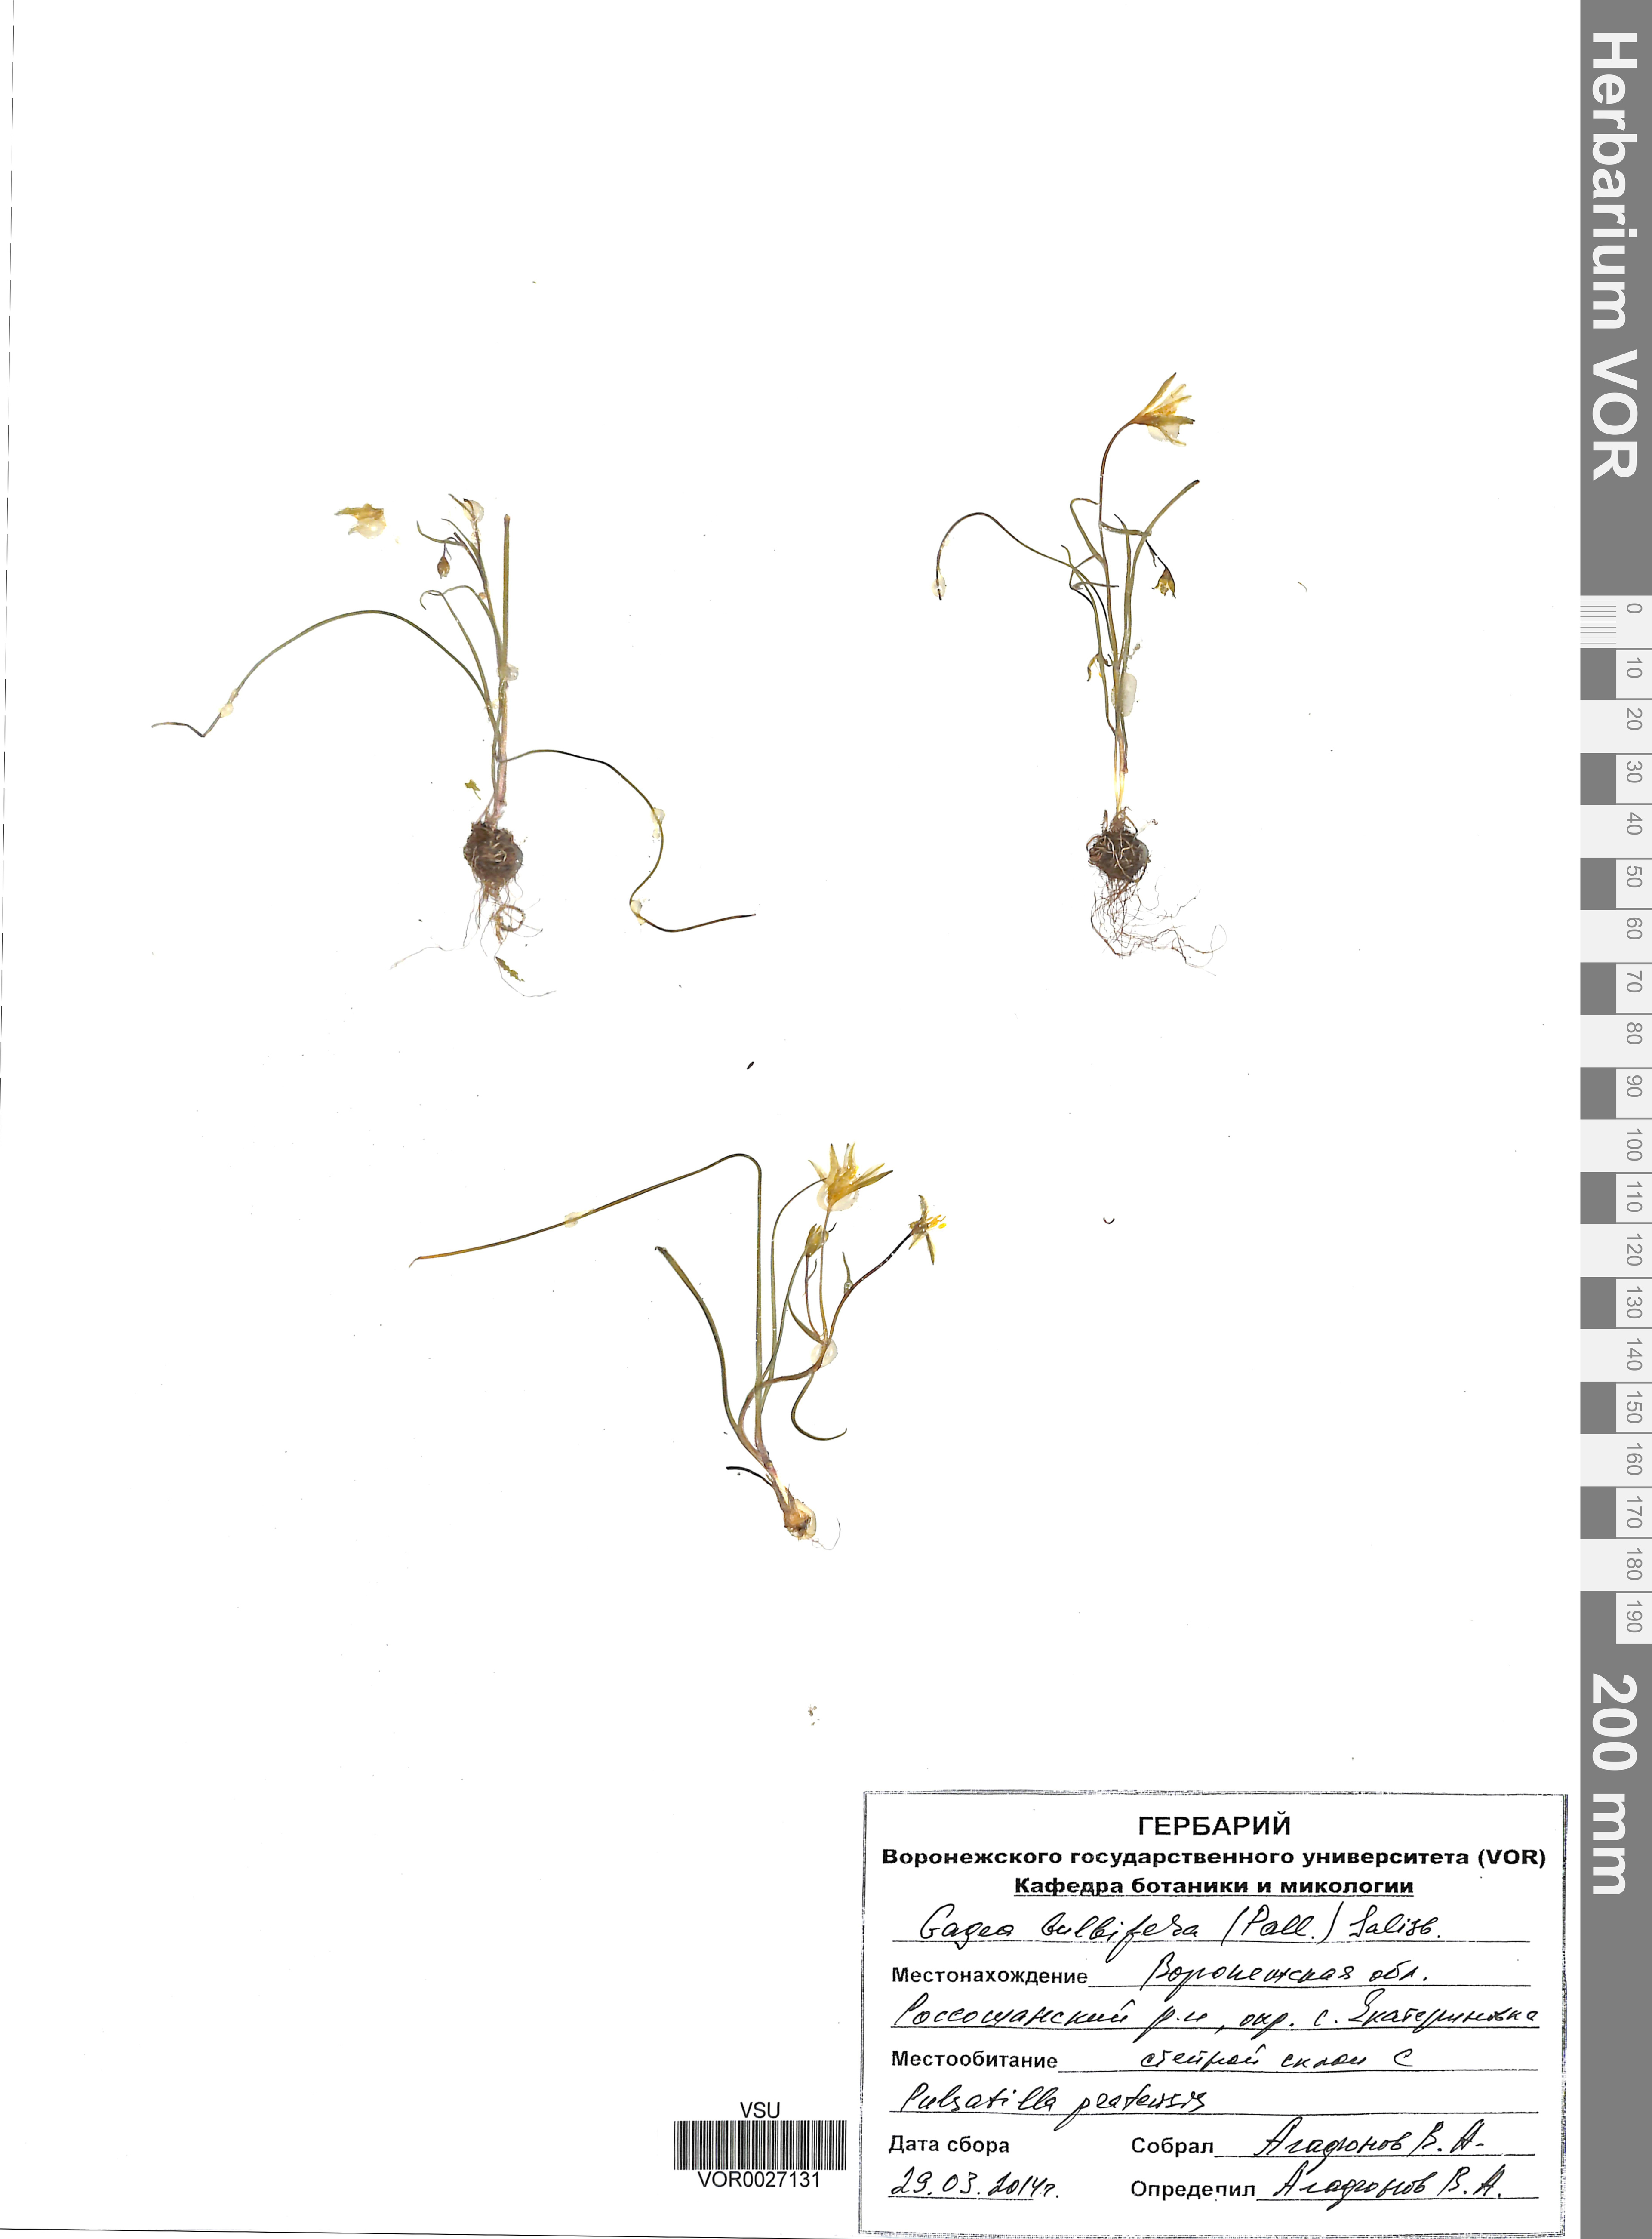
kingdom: Plantae
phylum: Tracheophyta
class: Liliopsida
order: Liliales
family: Liliaceae
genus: Gagea
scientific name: Gagea bulbifera
